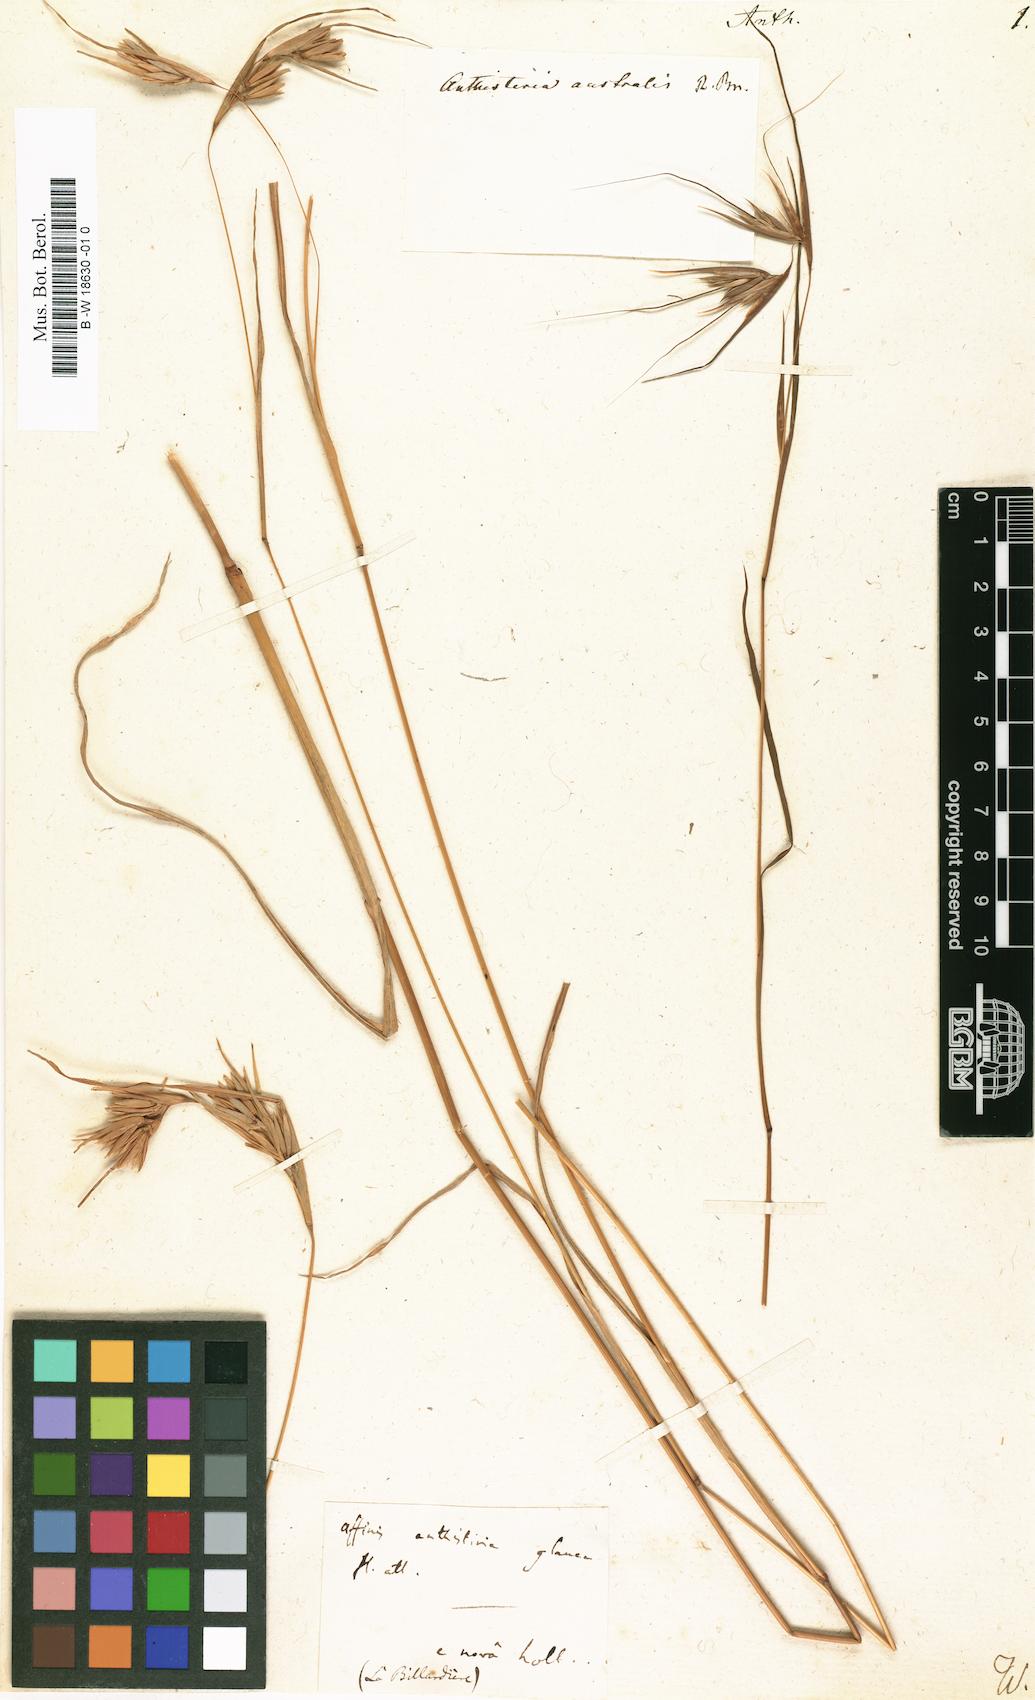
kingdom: Plantae
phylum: Tracheophyta
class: Liliopsida
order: Poales
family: Poaceae
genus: Themeda
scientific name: Themeda
